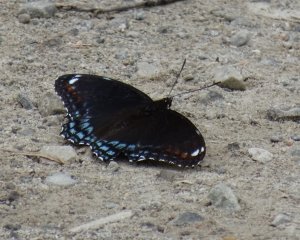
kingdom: Animalia
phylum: Arthropoda
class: Insecta
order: Lepidoptera
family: Nymphalidae
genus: Limenitis
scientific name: Limenitis astyanax
